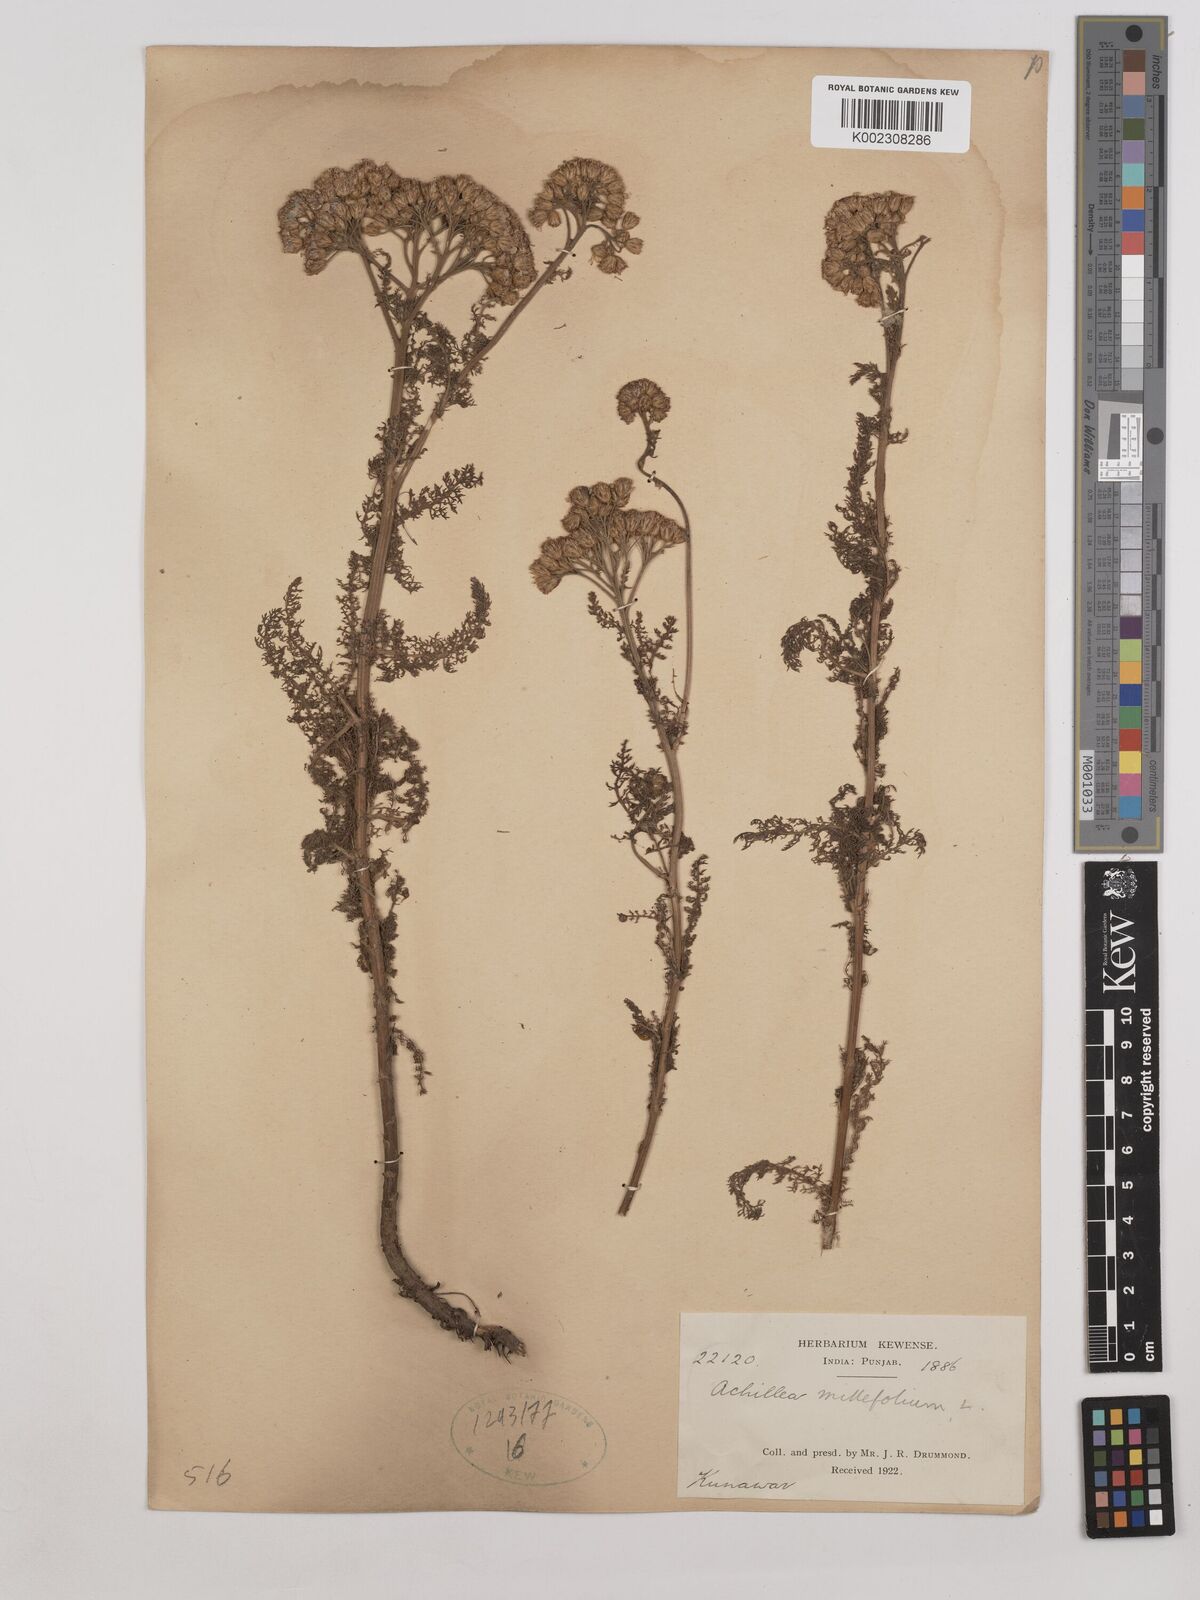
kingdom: Plantae
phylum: Tracheophyta
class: Magnoliopsida
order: Asterales
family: Asteraceae
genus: Achillea
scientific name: Achillea millefolium
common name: Yarrow
